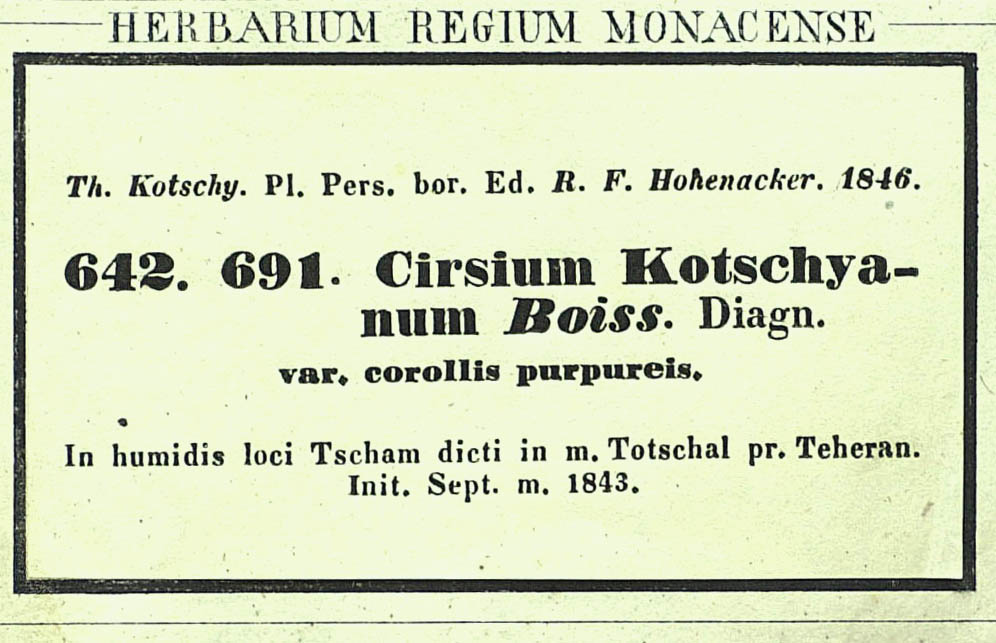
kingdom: Plantae
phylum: Tracheophyta
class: Magnoliopsida
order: Asterales
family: Asteraceae
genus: Cirsium
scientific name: Cirsium hygrophilum
